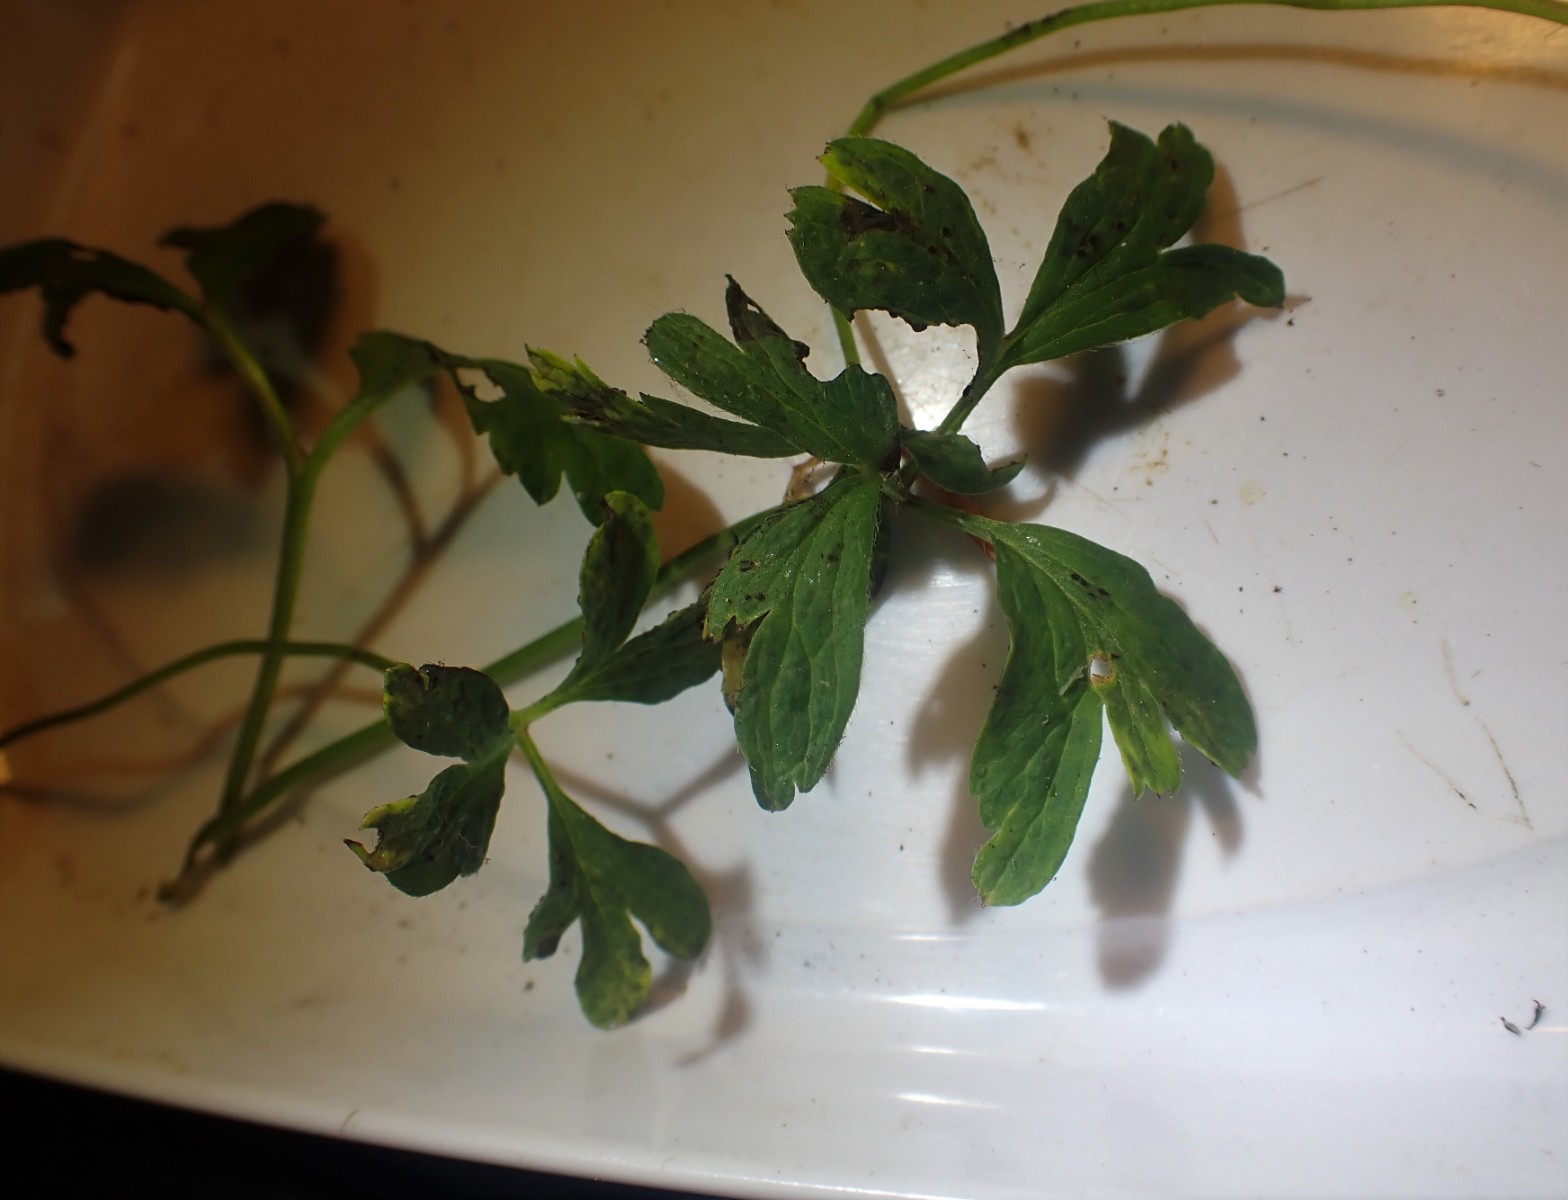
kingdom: Fungi
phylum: Basidiomycota
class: Pucciniomycetes
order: Pucciniales
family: Tranzscheliaceae
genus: Tranzschelia
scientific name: Tranzschelia anemones
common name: anemone-knæksporerust
